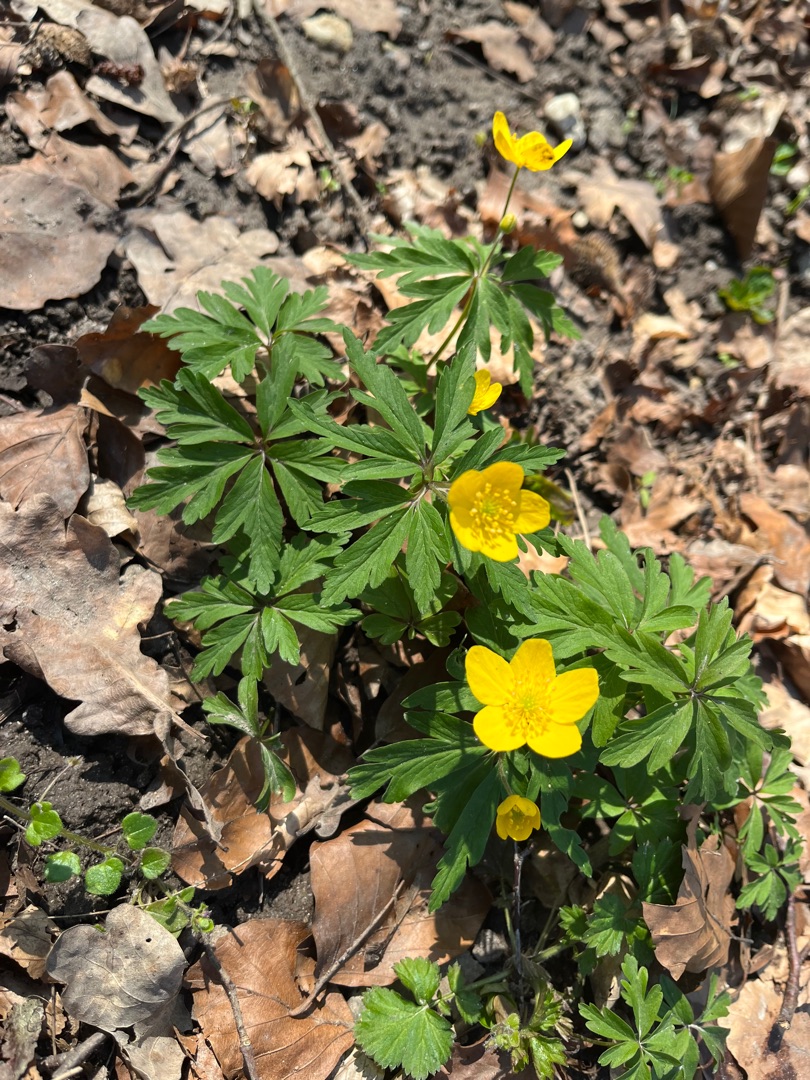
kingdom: Plantae
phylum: Tracheophyta
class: Magnoliopsida
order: Ranunculales
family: Ranunculaceae
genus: Anemone
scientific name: Anemone ranunculoides
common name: Gul anemone
